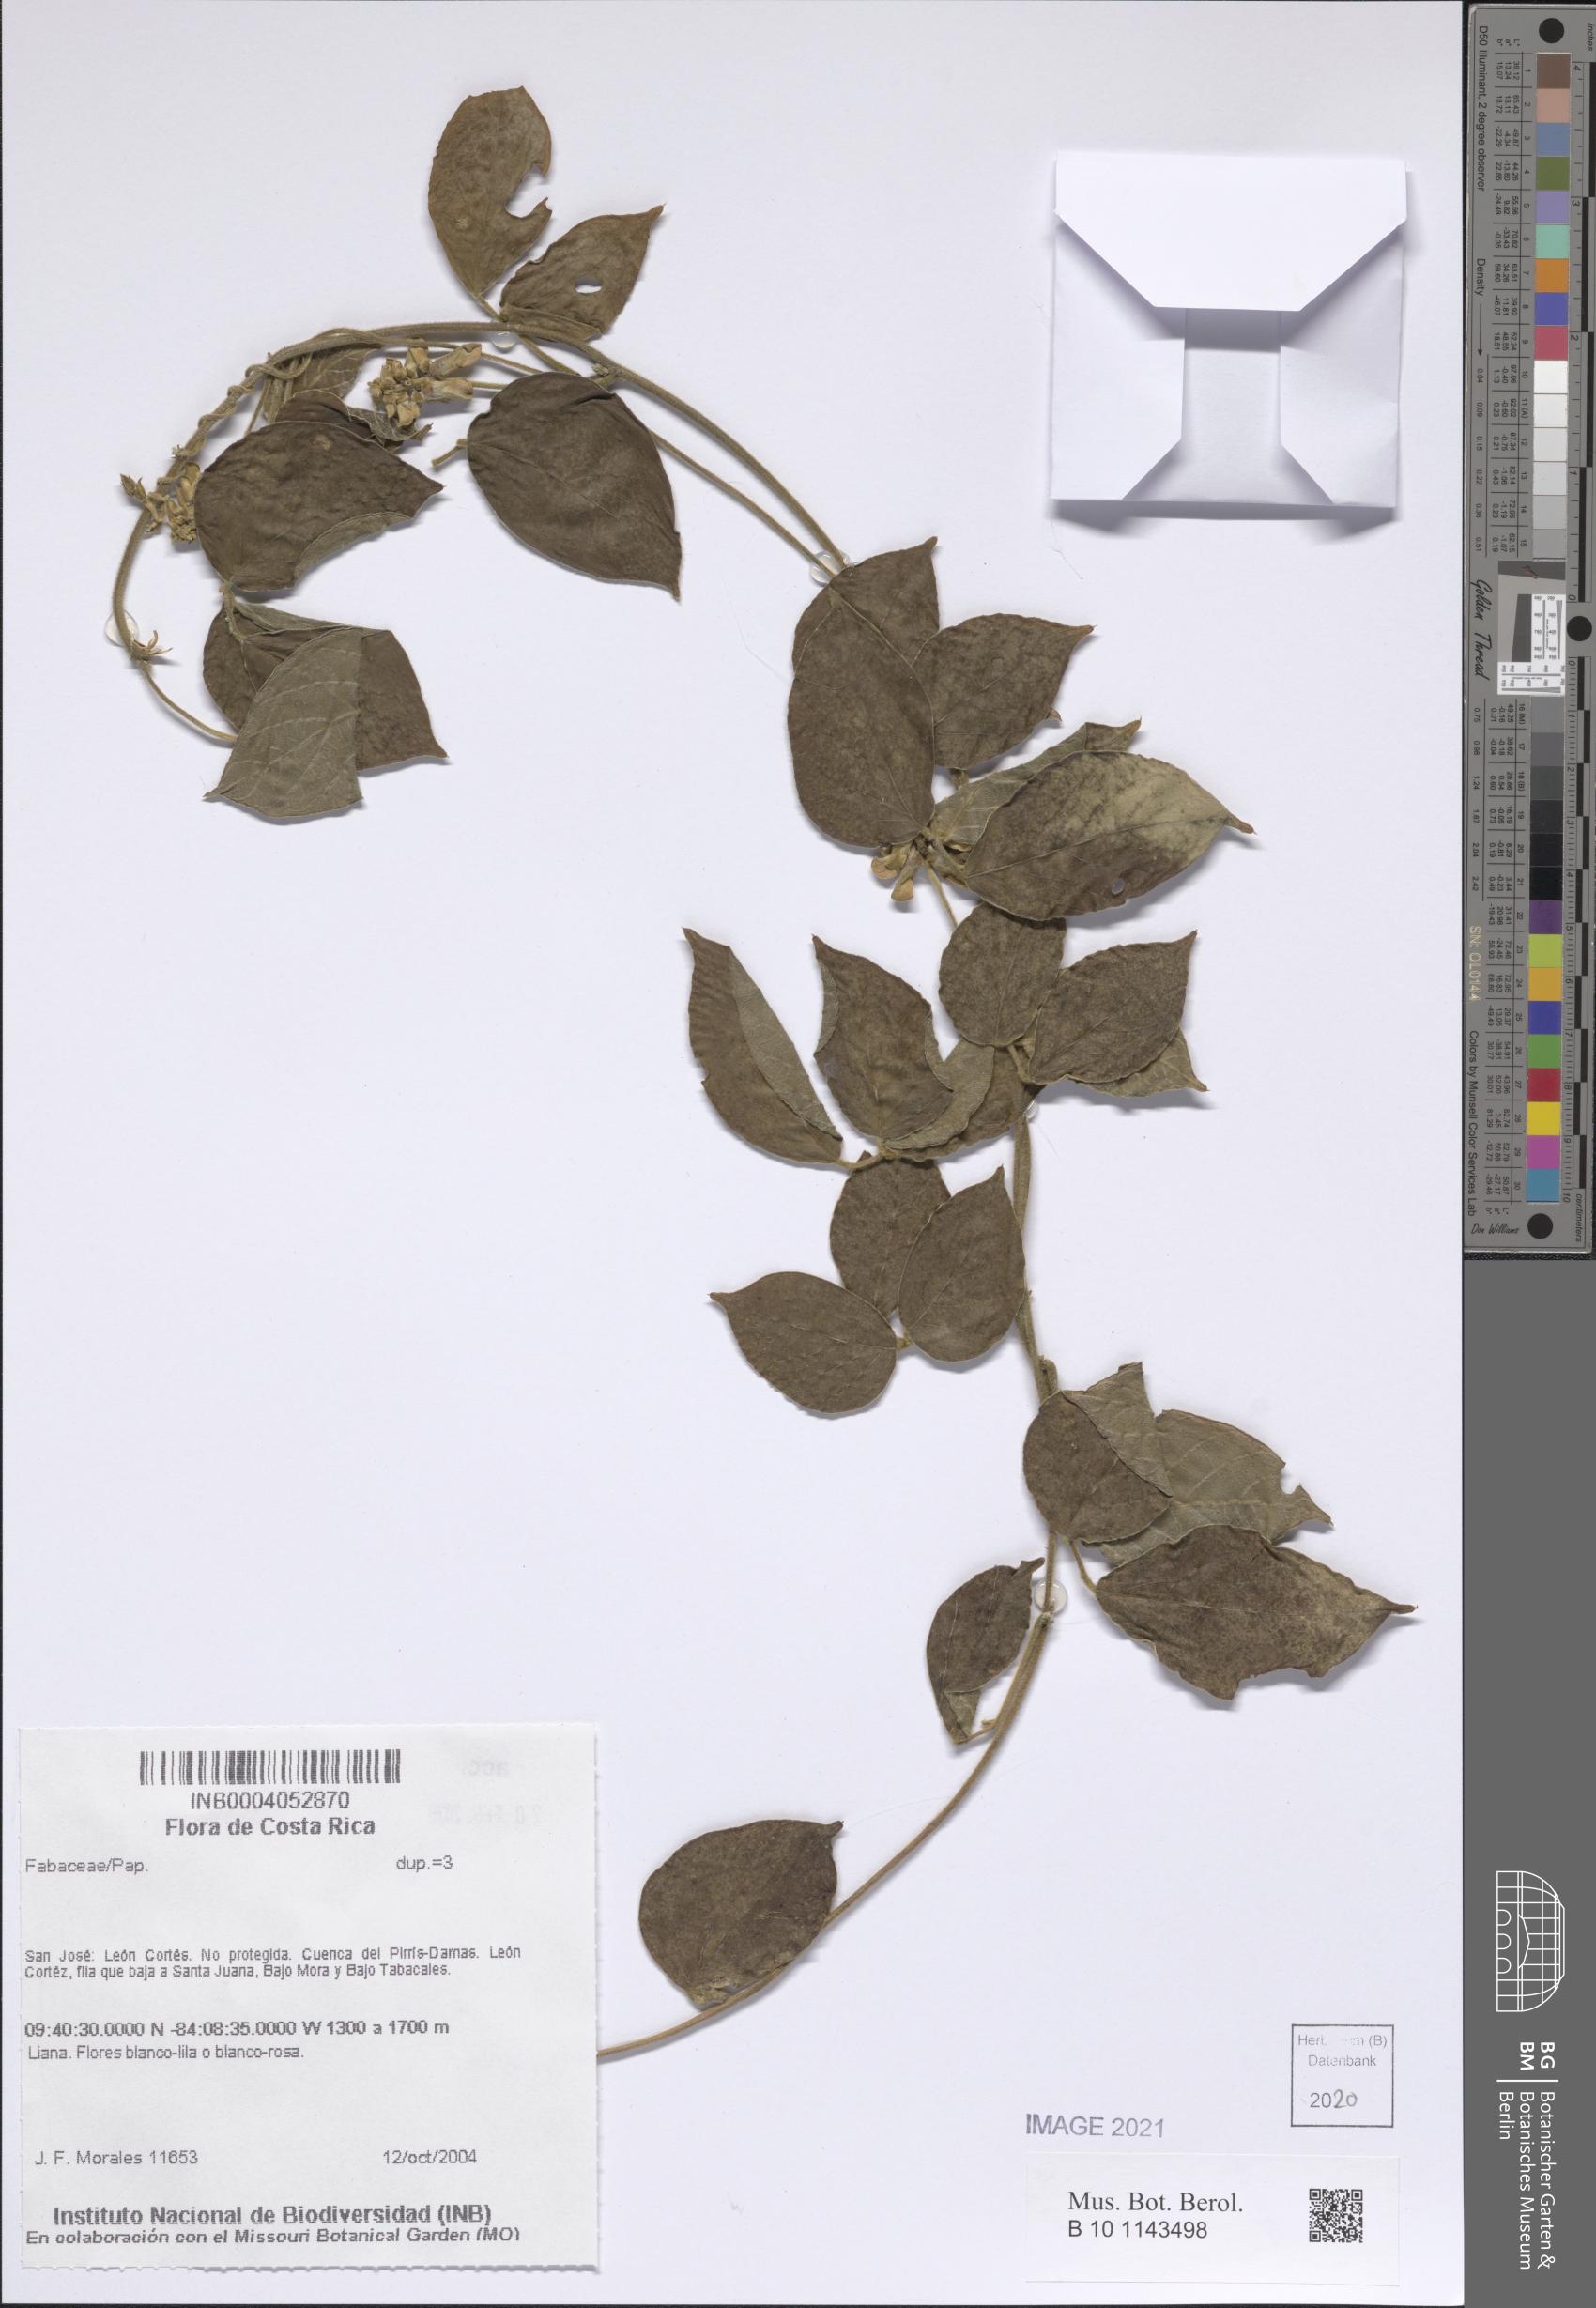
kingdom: Plantae
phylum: Tracheophyta
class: Magnoliopsida
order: Fabales
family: Fabaceae
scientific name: Fabaceae
